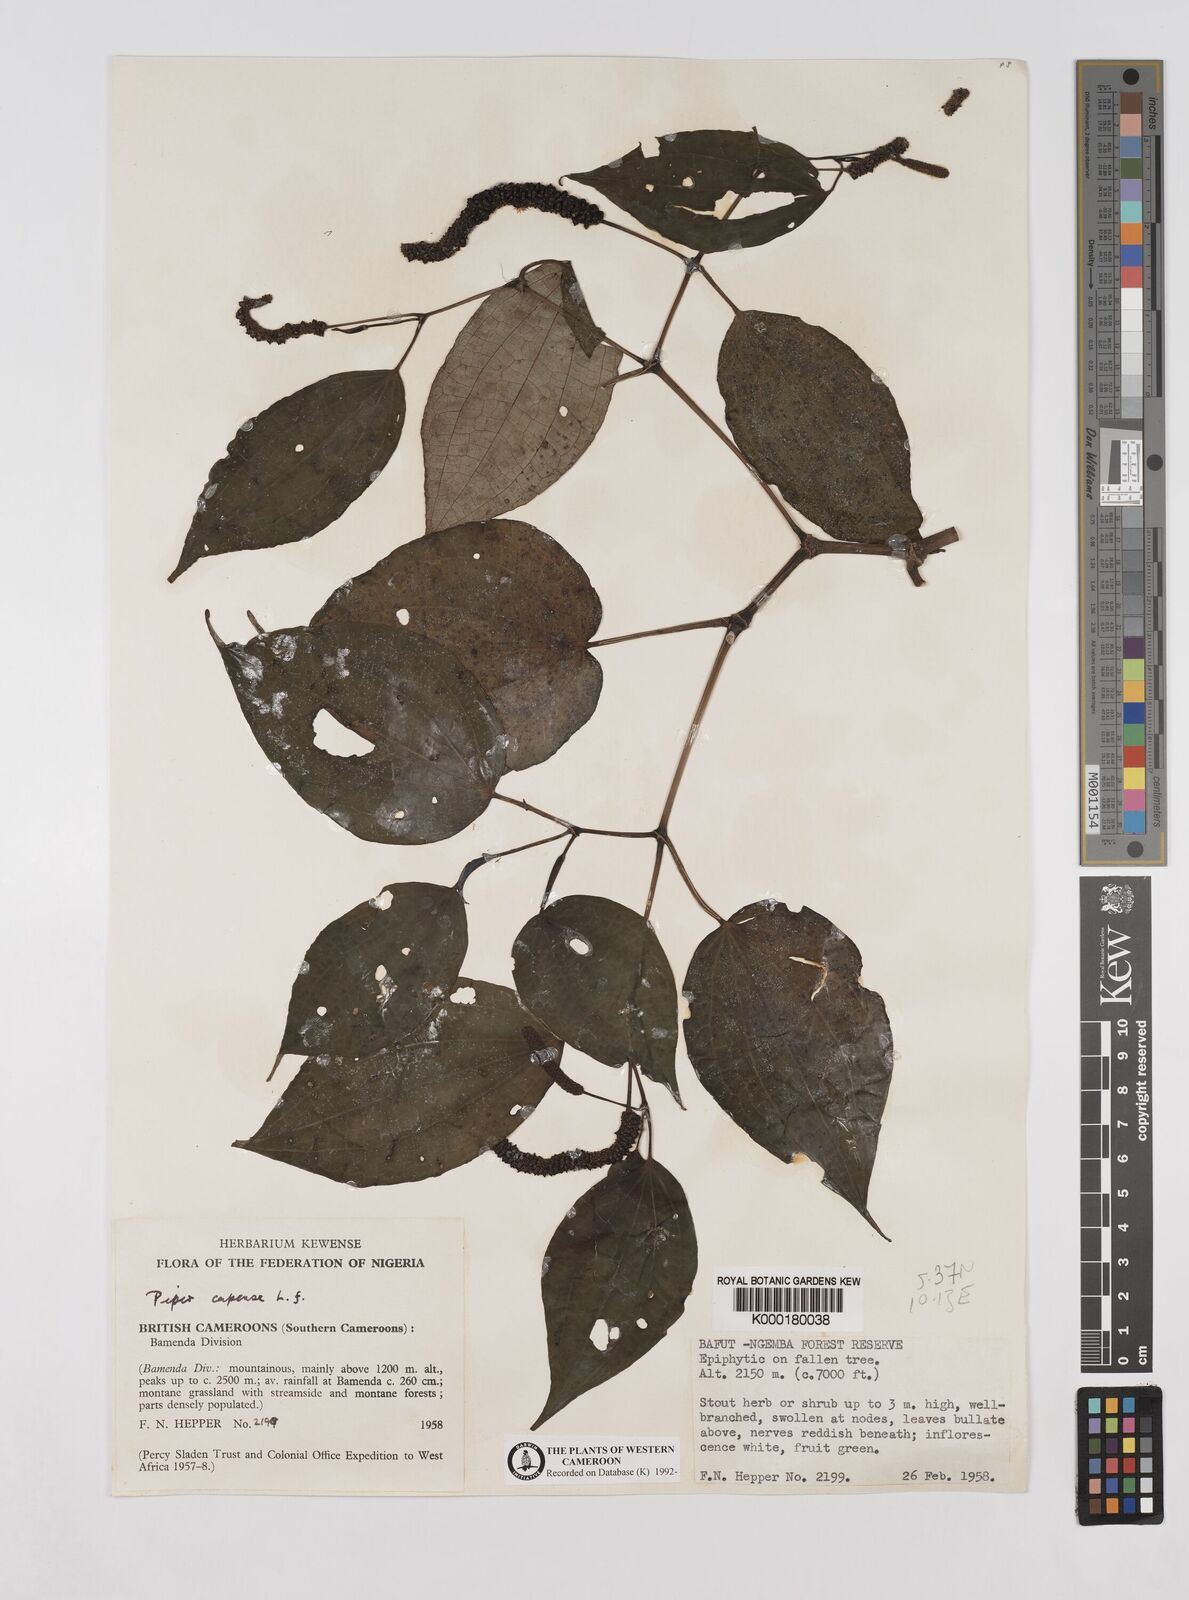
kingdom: Plantae
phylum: Tracheophyta
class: Magnoliopsida
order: Piperales
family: Piperaceae
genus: Piper
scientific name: Piper capense
